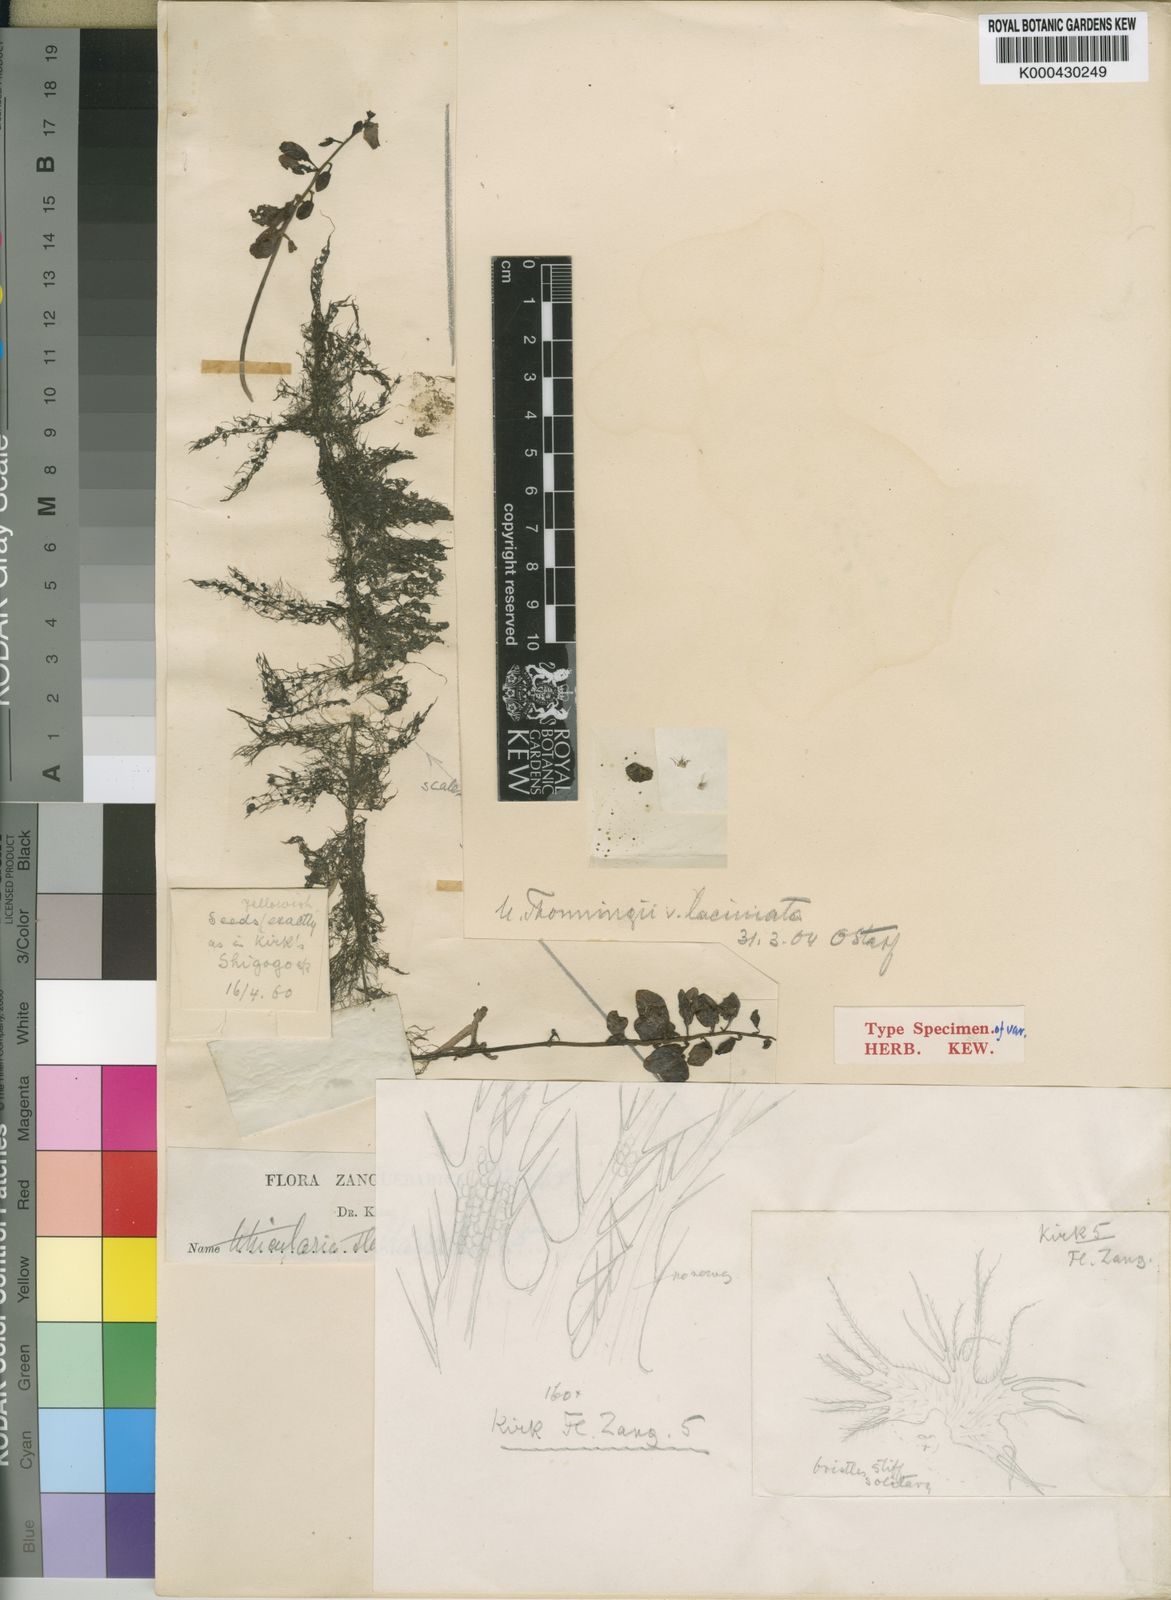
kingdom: Plantae
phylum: Tracheophyta
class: Magnoliopsida
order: Lamiales
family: Lentibulariaceae
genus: Utricularia
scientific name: Utricularia inflexa
